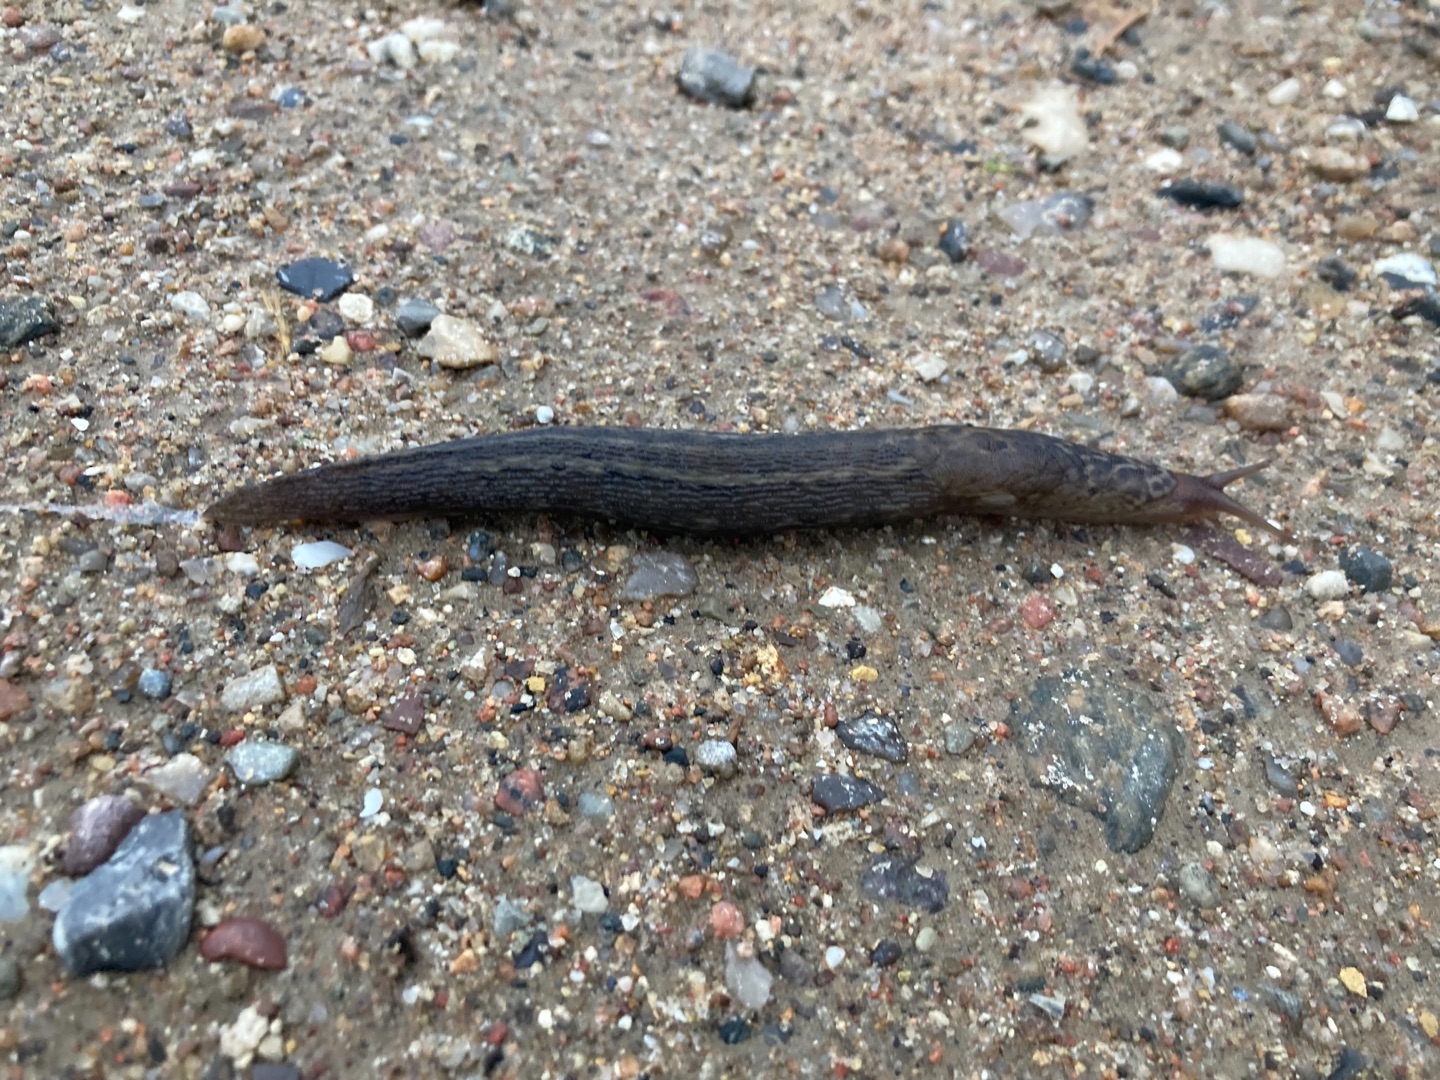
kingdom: Animalia
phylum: Mollusca
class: Gastropoda
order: Stylommatophora
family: Limacidae
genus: Limax
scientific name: Limax maximus
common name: Pantersnegl
